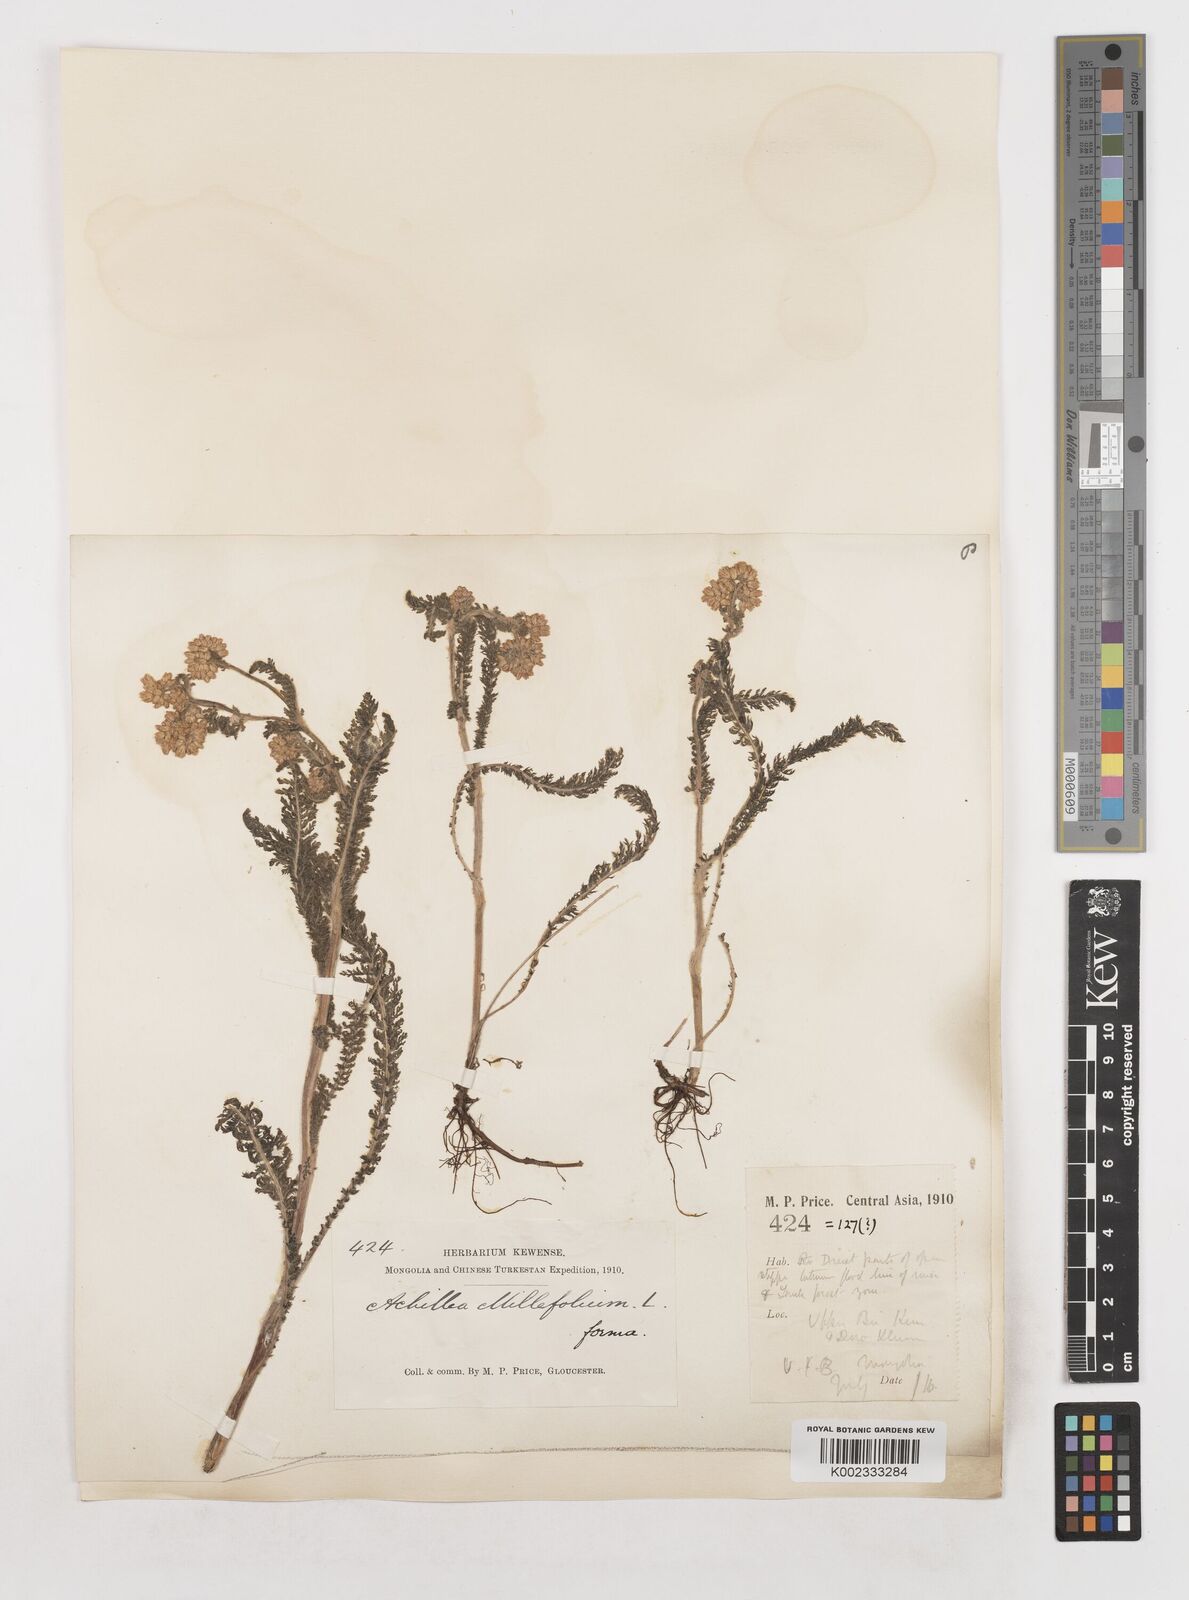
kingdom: Plantae
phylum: Tracheophyta
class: Magnoliopsida
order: Asterales
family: Asteraceae
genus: Achillea
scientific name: Achillea setacea
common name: Bristly yarrow
